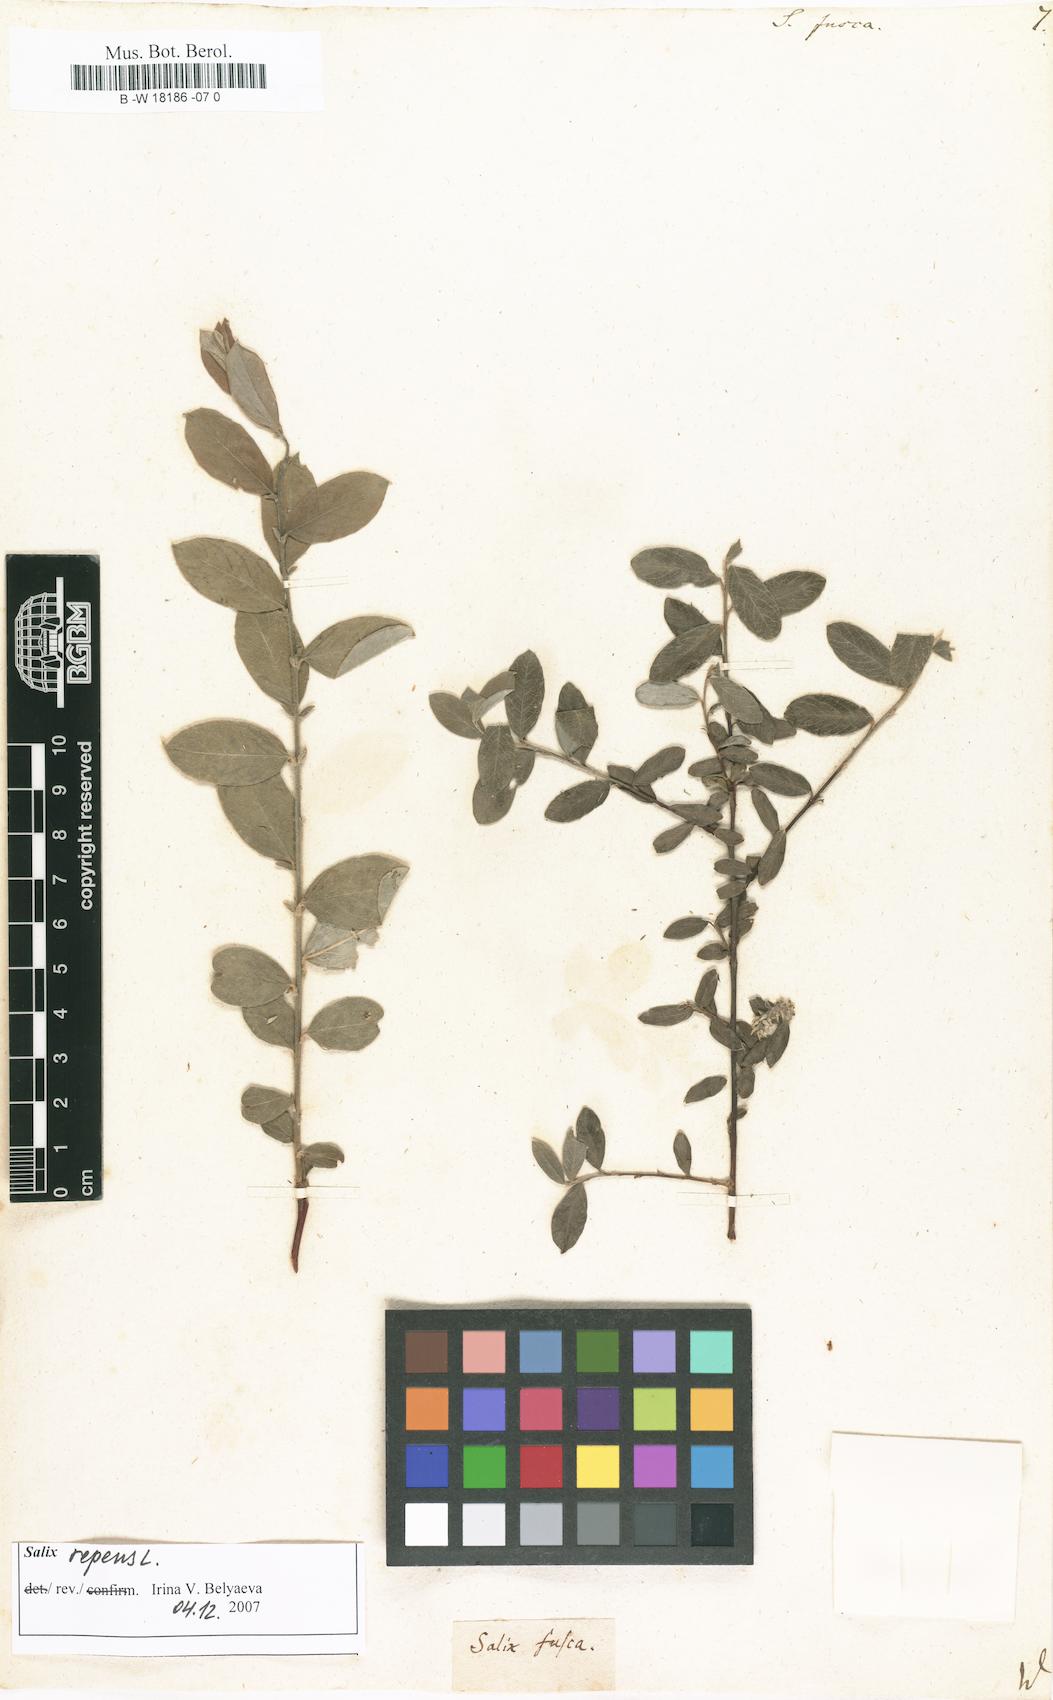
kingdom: Plantae
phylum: Tracheophyta
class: Magnoliopsida
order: Malpighiales
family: Salicaceae
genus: Salix
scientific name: Salix repens
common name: Creeping willow
